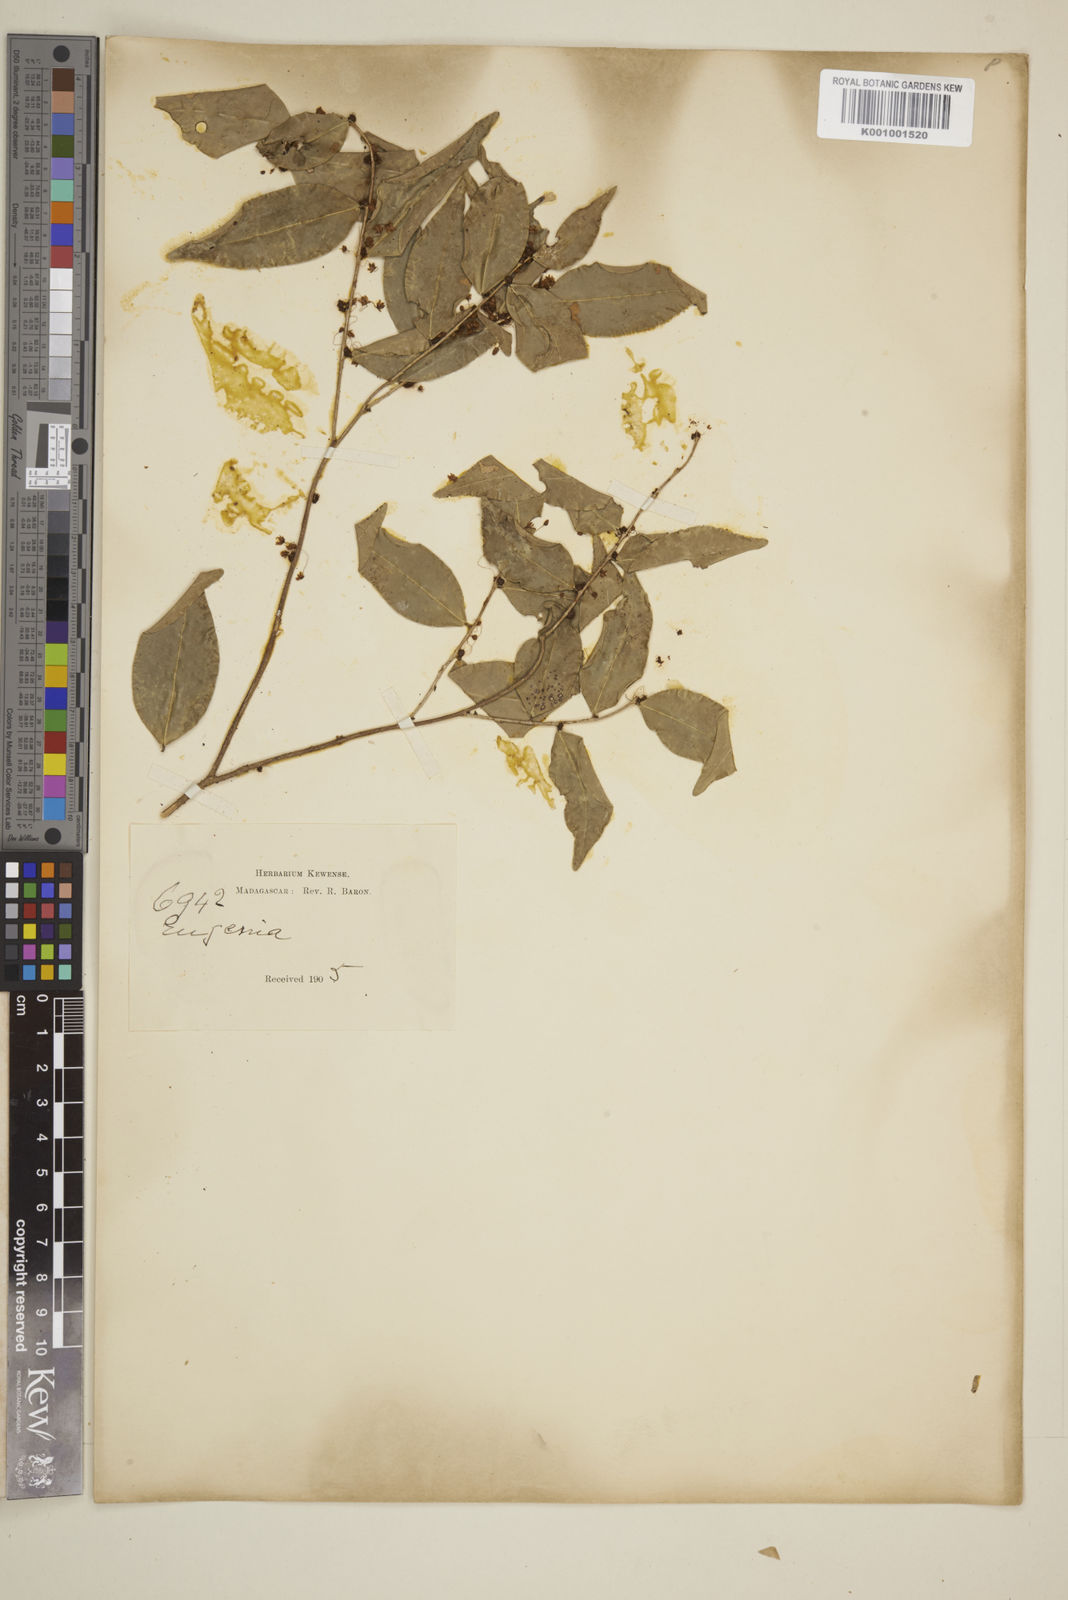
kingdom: Plantae
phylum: Tracheophyta
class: Magnoliopsida
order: Myrtales
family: Myrtaceae
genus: Eugenia
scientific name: Eugenia
